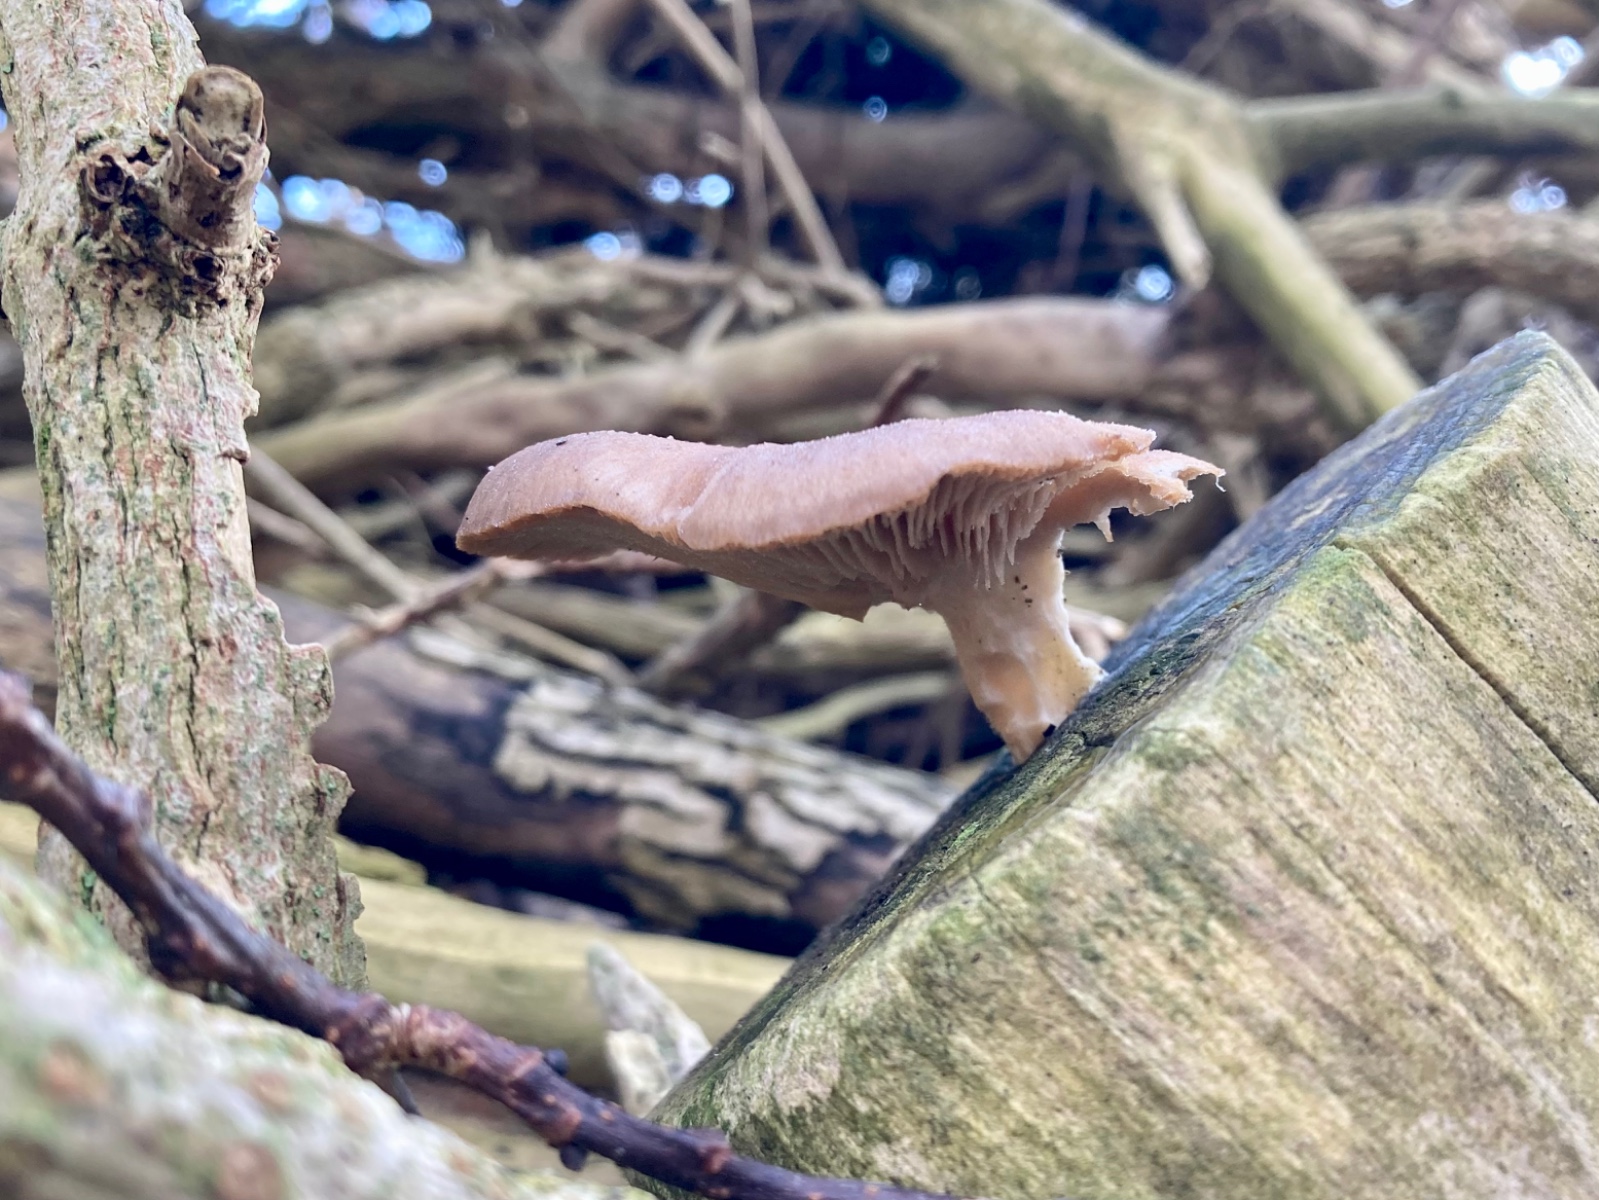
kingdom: Fungi
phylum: Basidiomycota
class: Agaricomycetes
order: Agaricales
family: Pleurotaceae
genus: Pleurotus
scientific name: Pleurotus ostreatus
